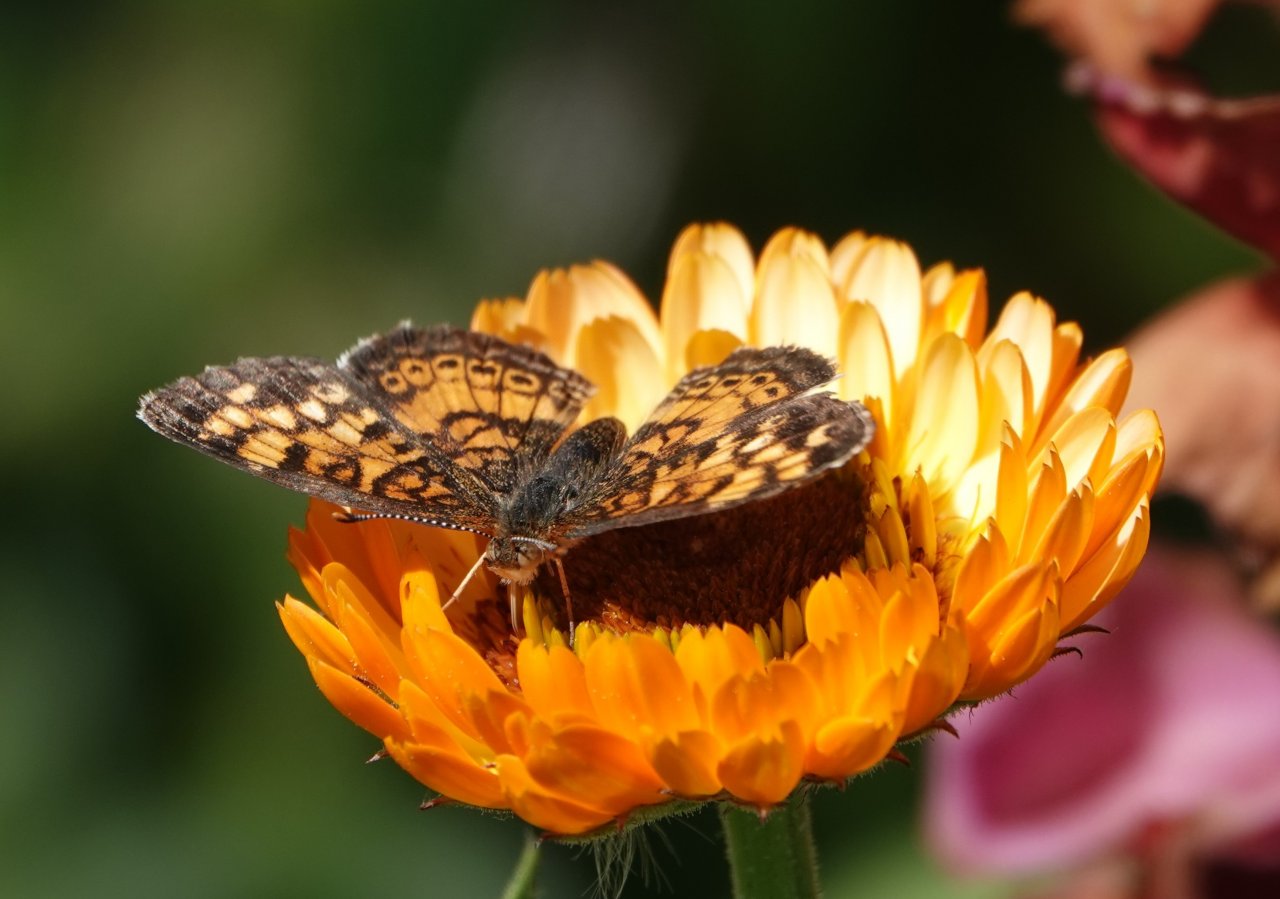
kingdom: Animalia
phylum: Arthropoda
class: Insecta
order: Lepidoptera
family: Nymphalidae
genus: Phyciodes
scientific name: Phyciodes tharos
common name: Pearl Crescent
